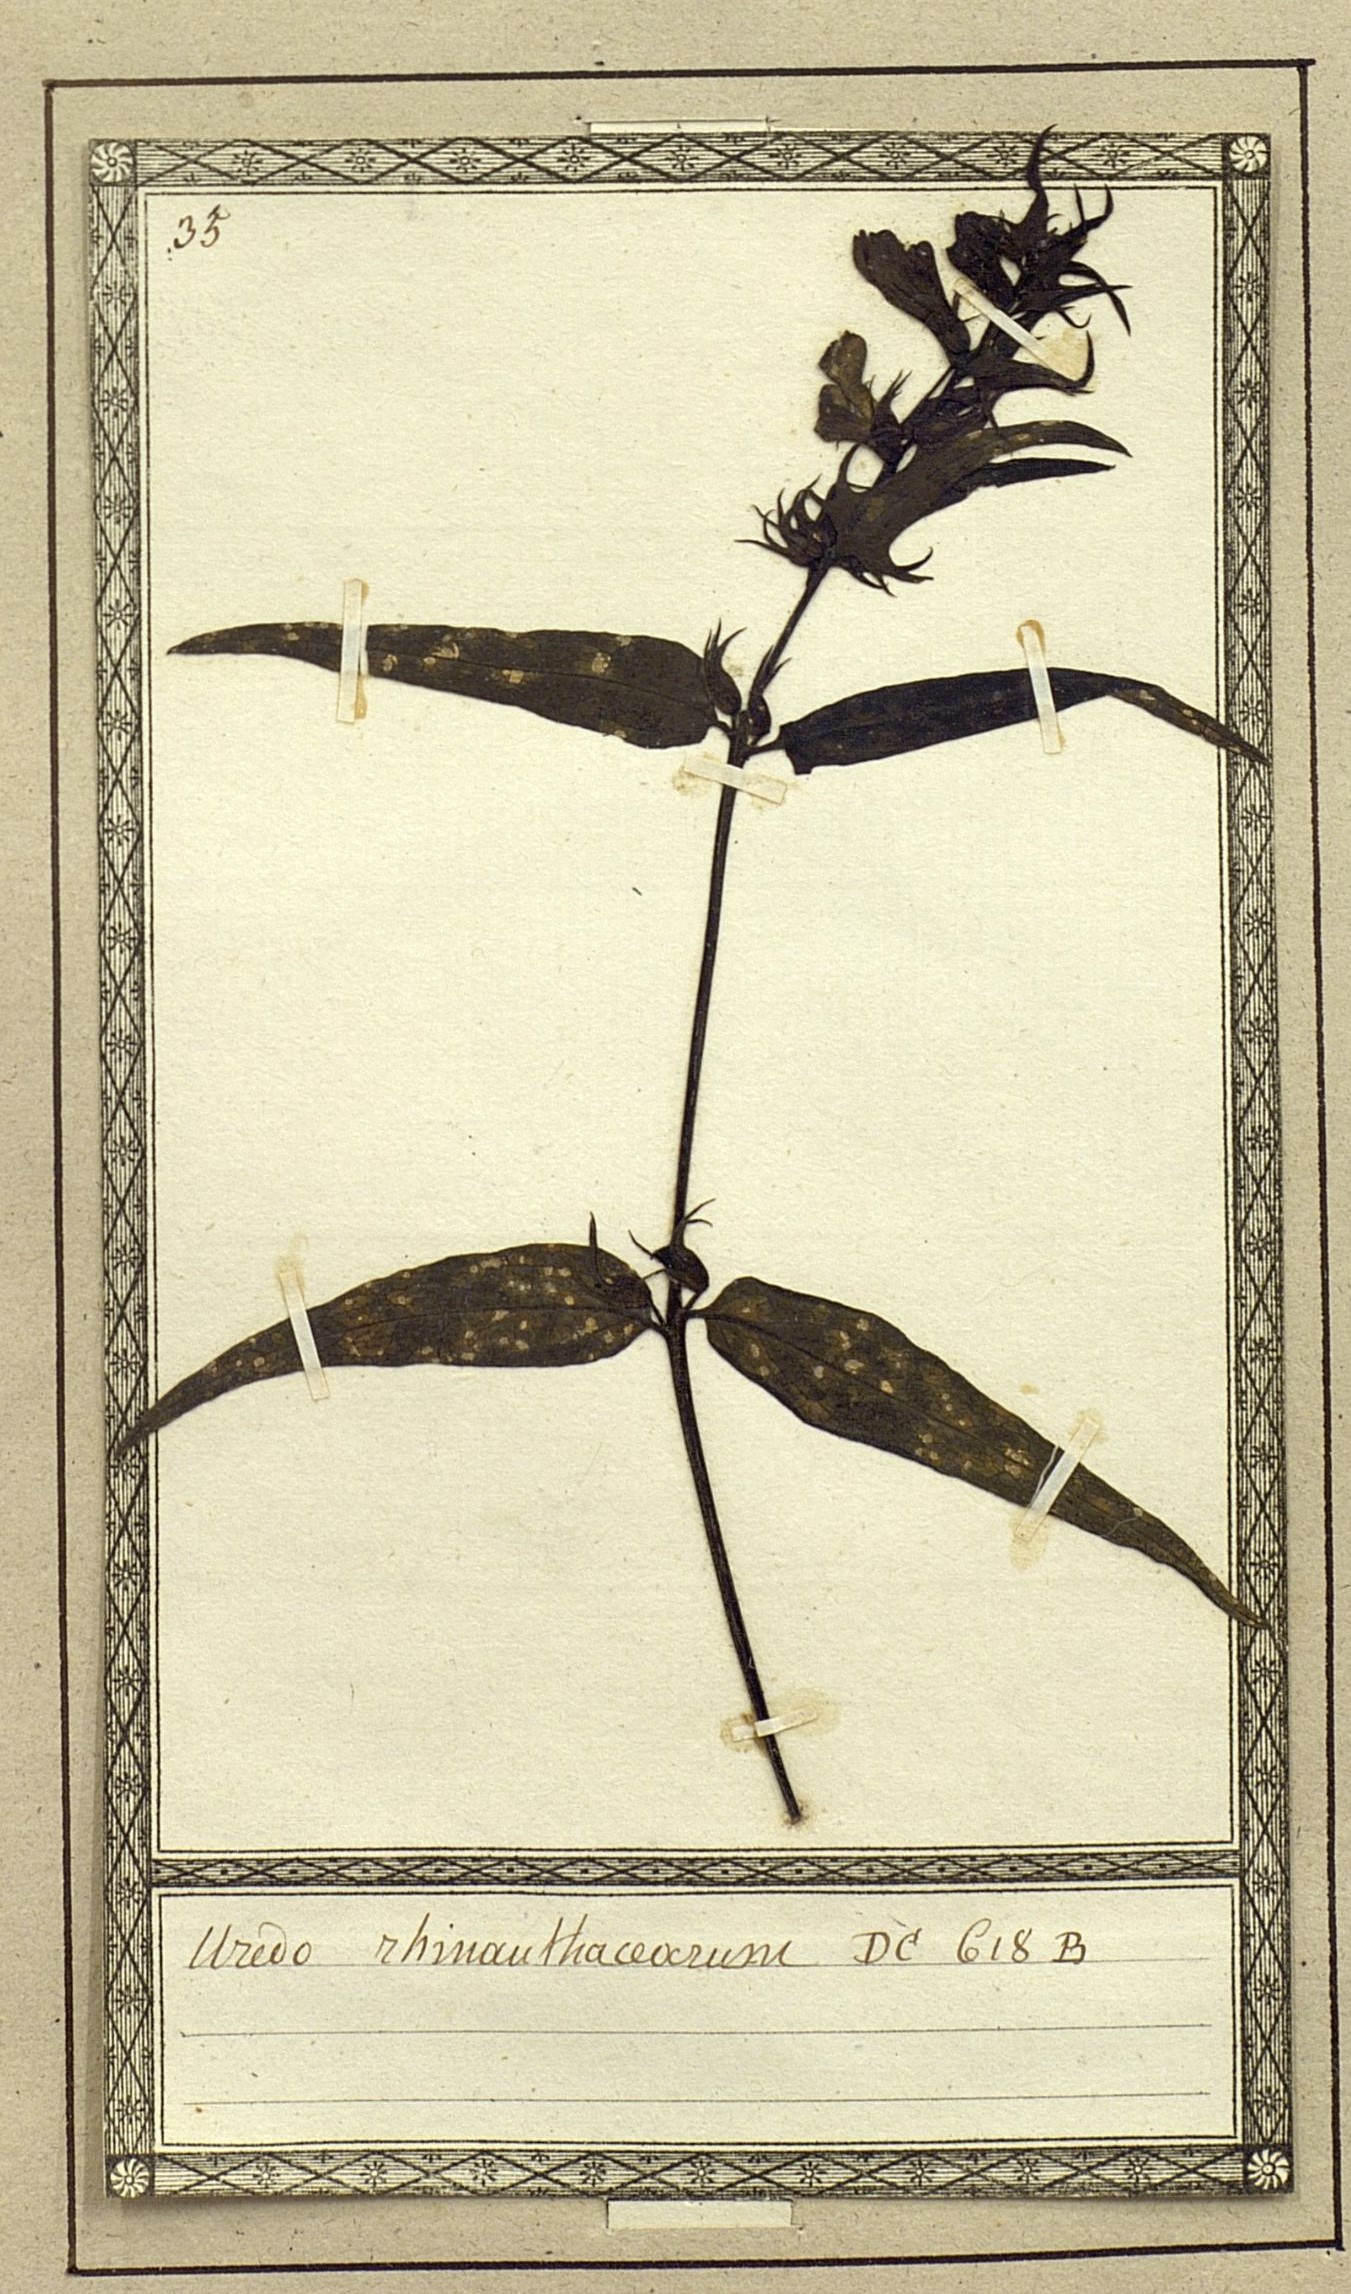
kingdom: Fungi
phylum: Basidiomycota
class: Pucciniomycetes
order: Pucciniales
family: Coleosporiaceae
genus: Coleosporium
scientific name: Coleosporium euphrasiae
